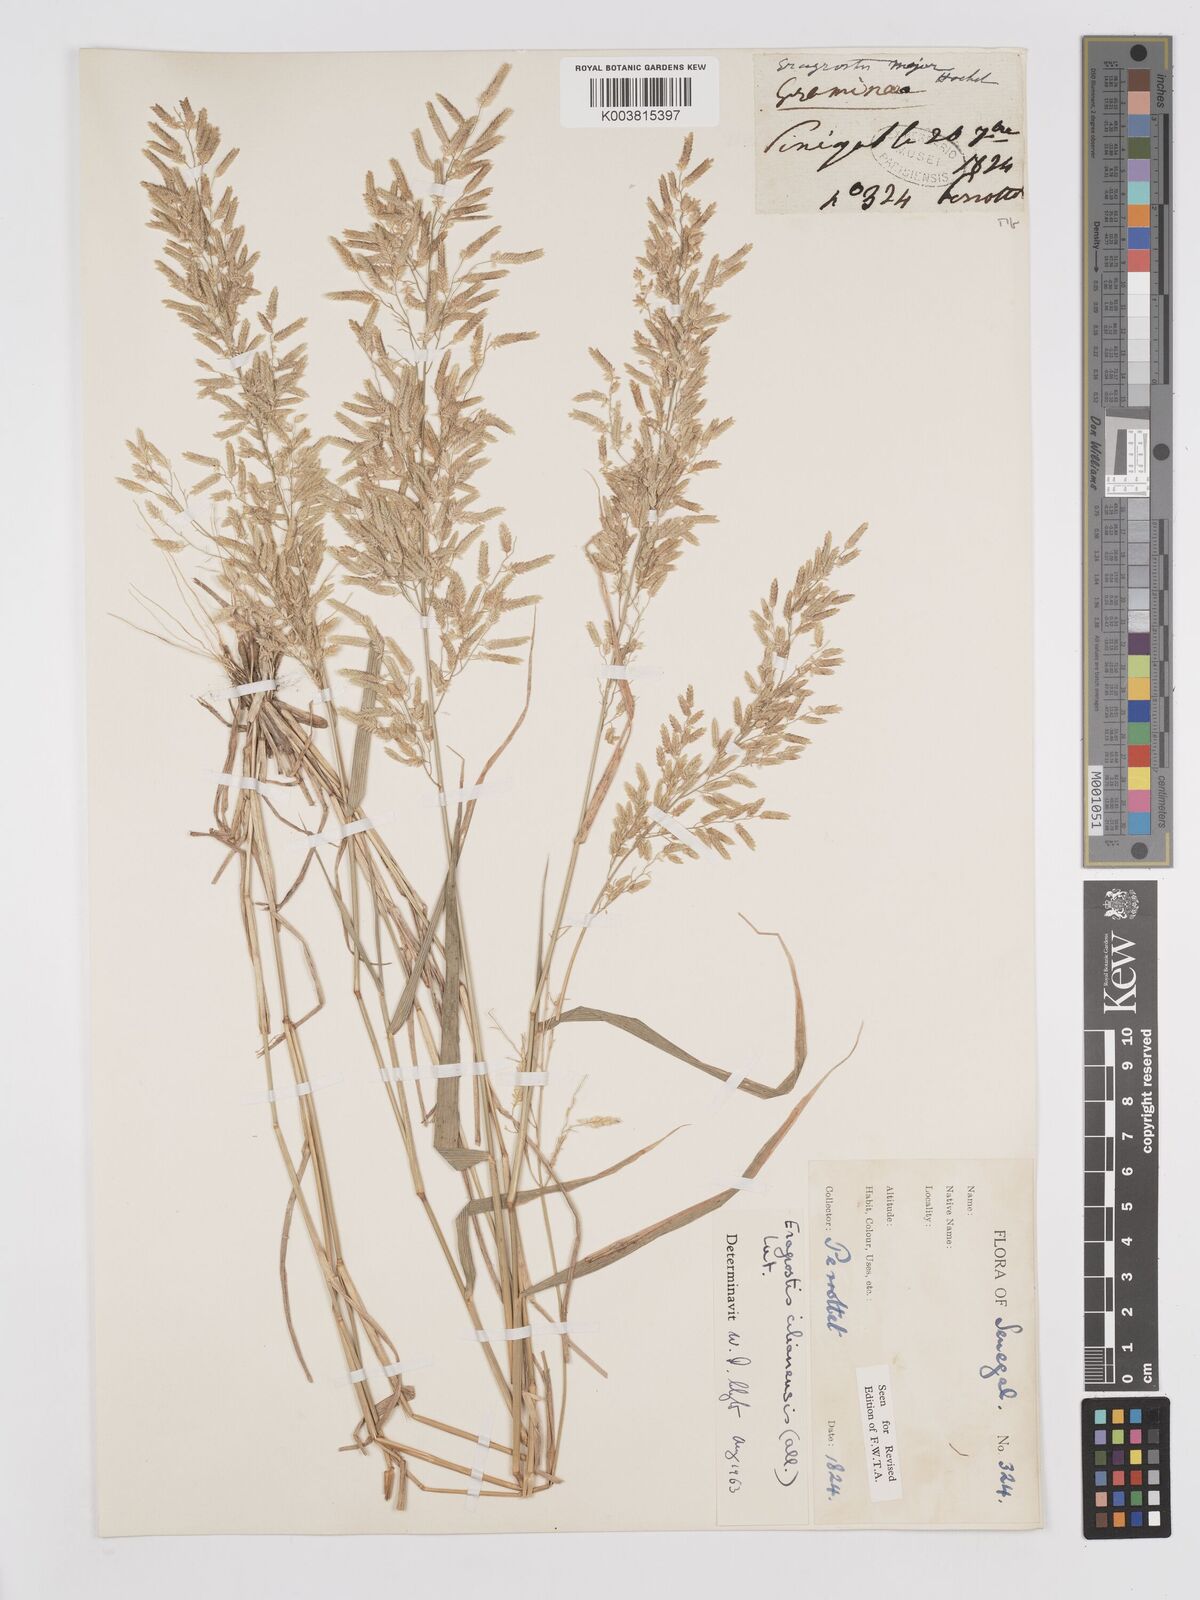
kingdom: Plantae
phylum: Tracheophyta
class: Liliopsida
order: Poales
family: Poaceae
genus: Eragrostis
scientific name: Eragrostis cilianensis
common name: Stinkgrass
